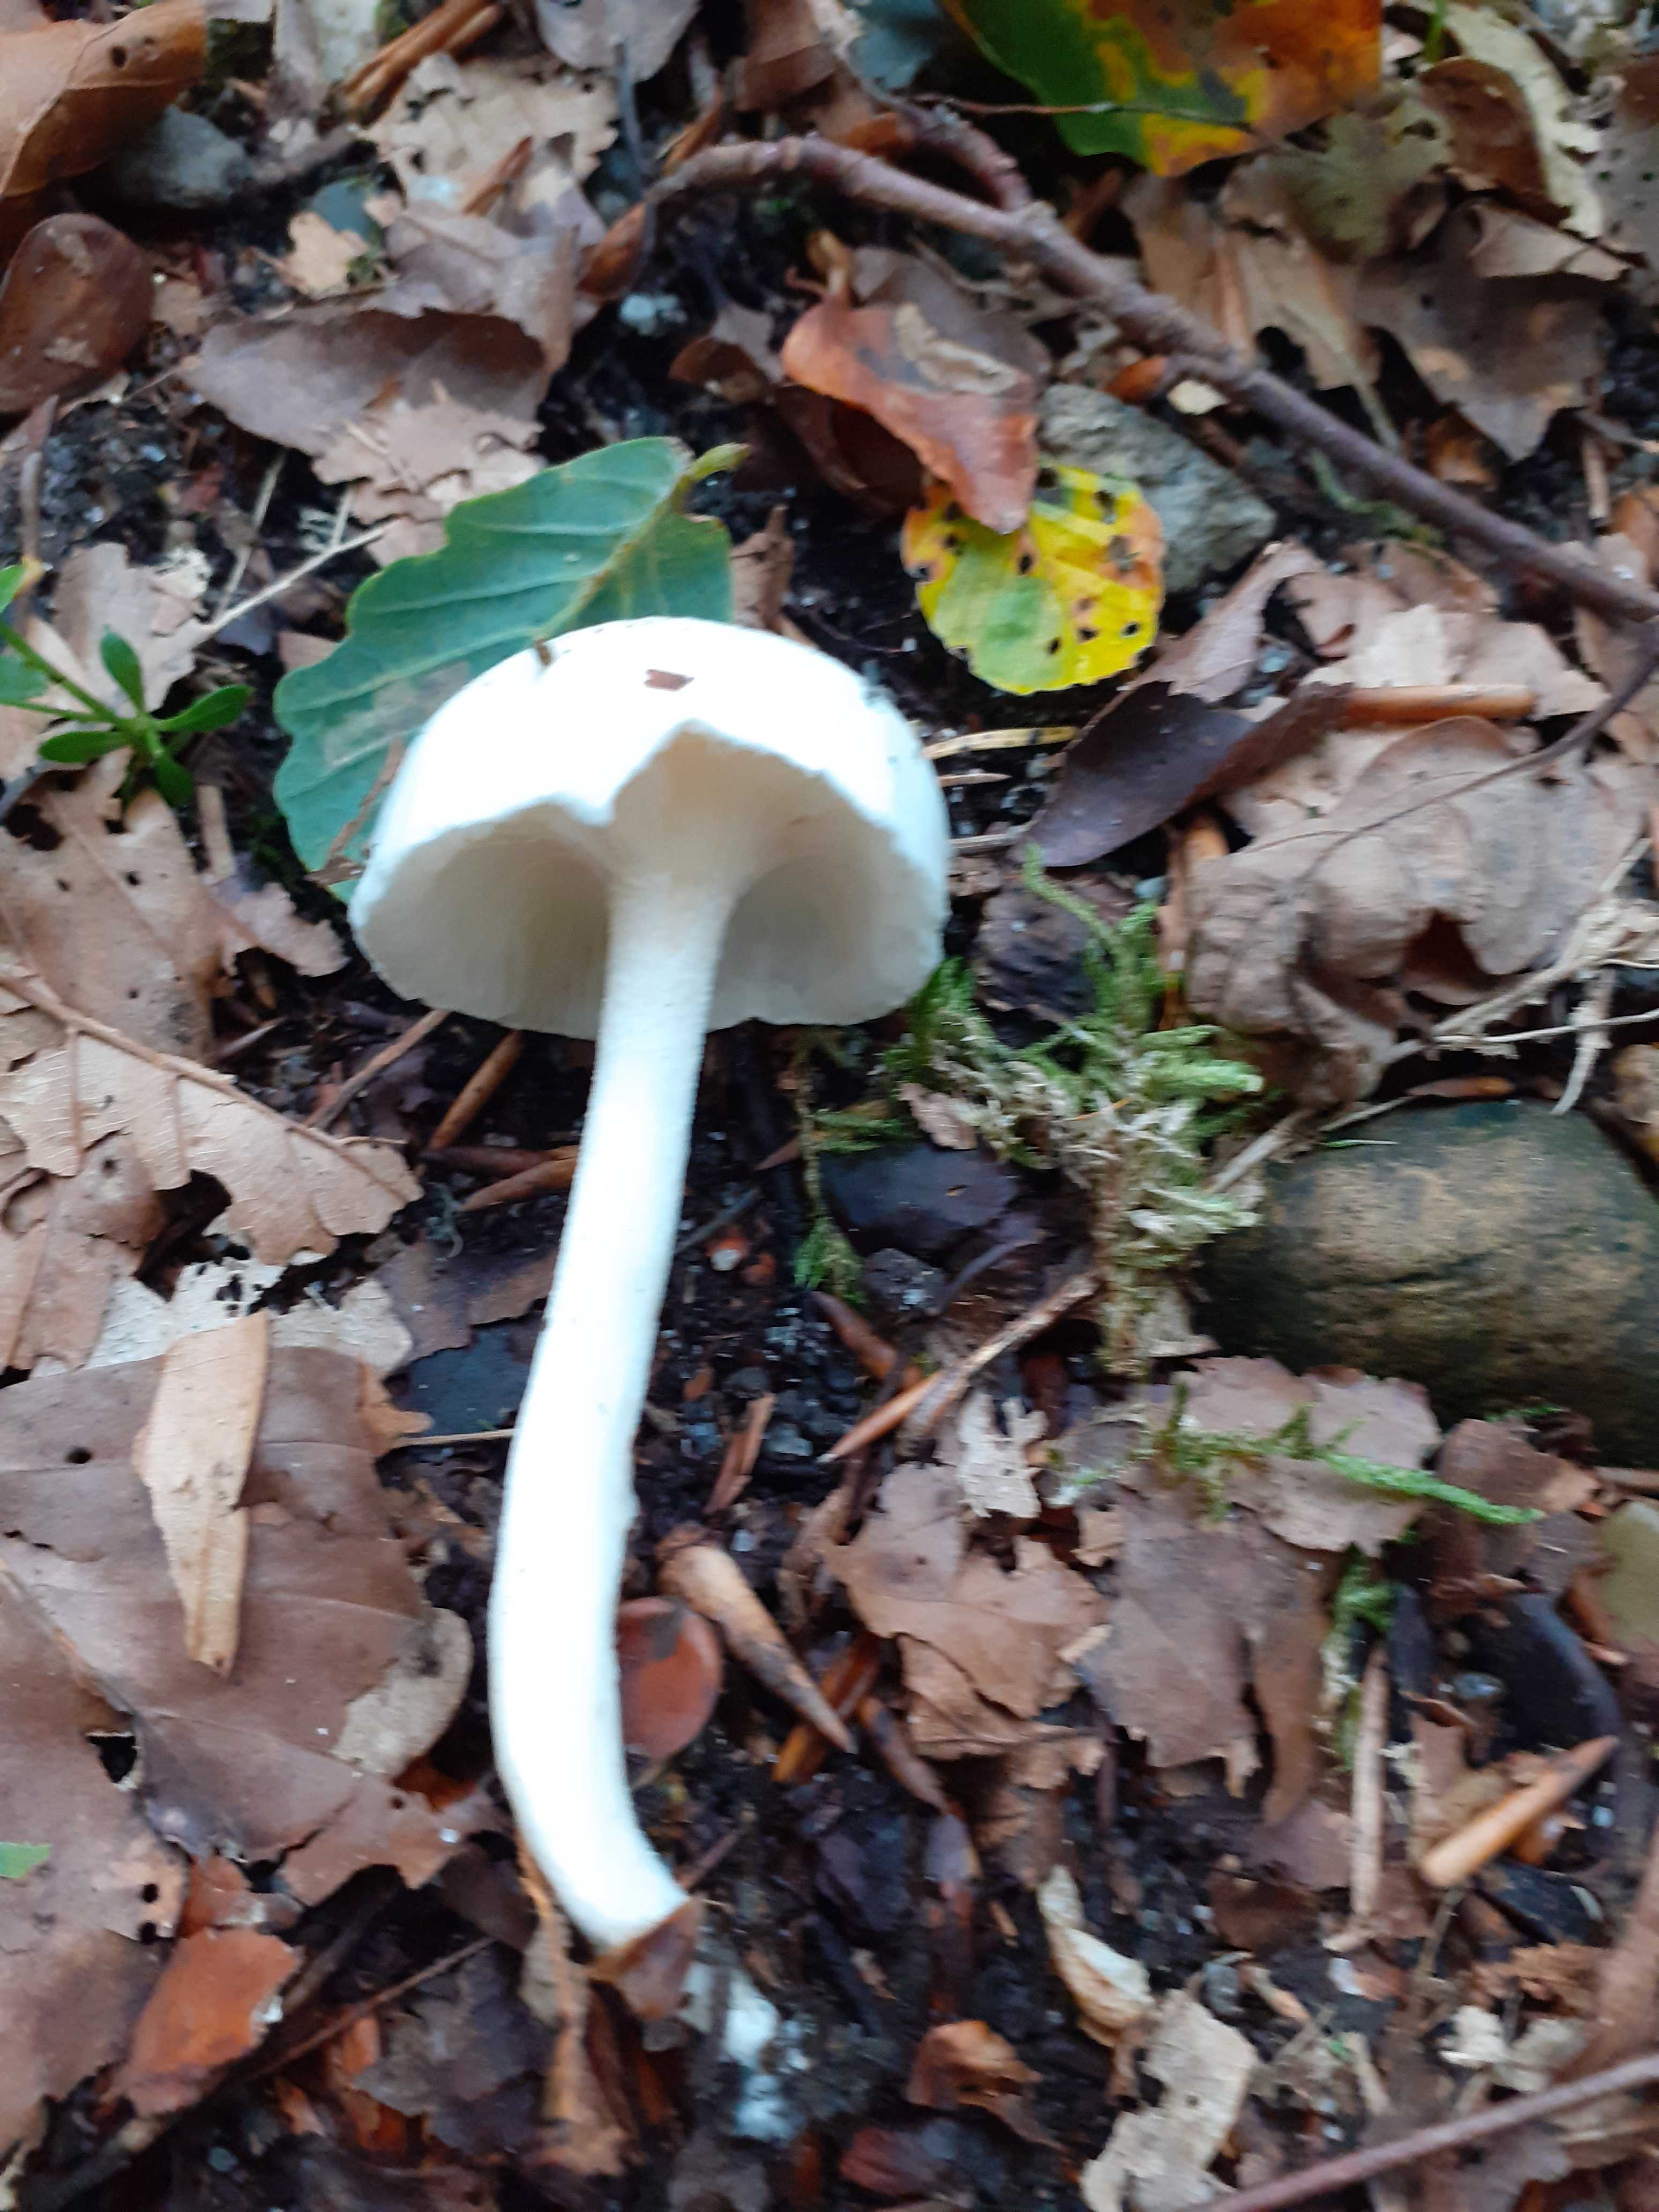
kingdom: Fungi
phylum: Basidiomycota
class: Agaricomycetes
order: Agaricales
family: Hygrophoraceae
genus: Hygrophorus
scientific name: Hygrophorus eburneus
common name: elfenbens-sneglehat
